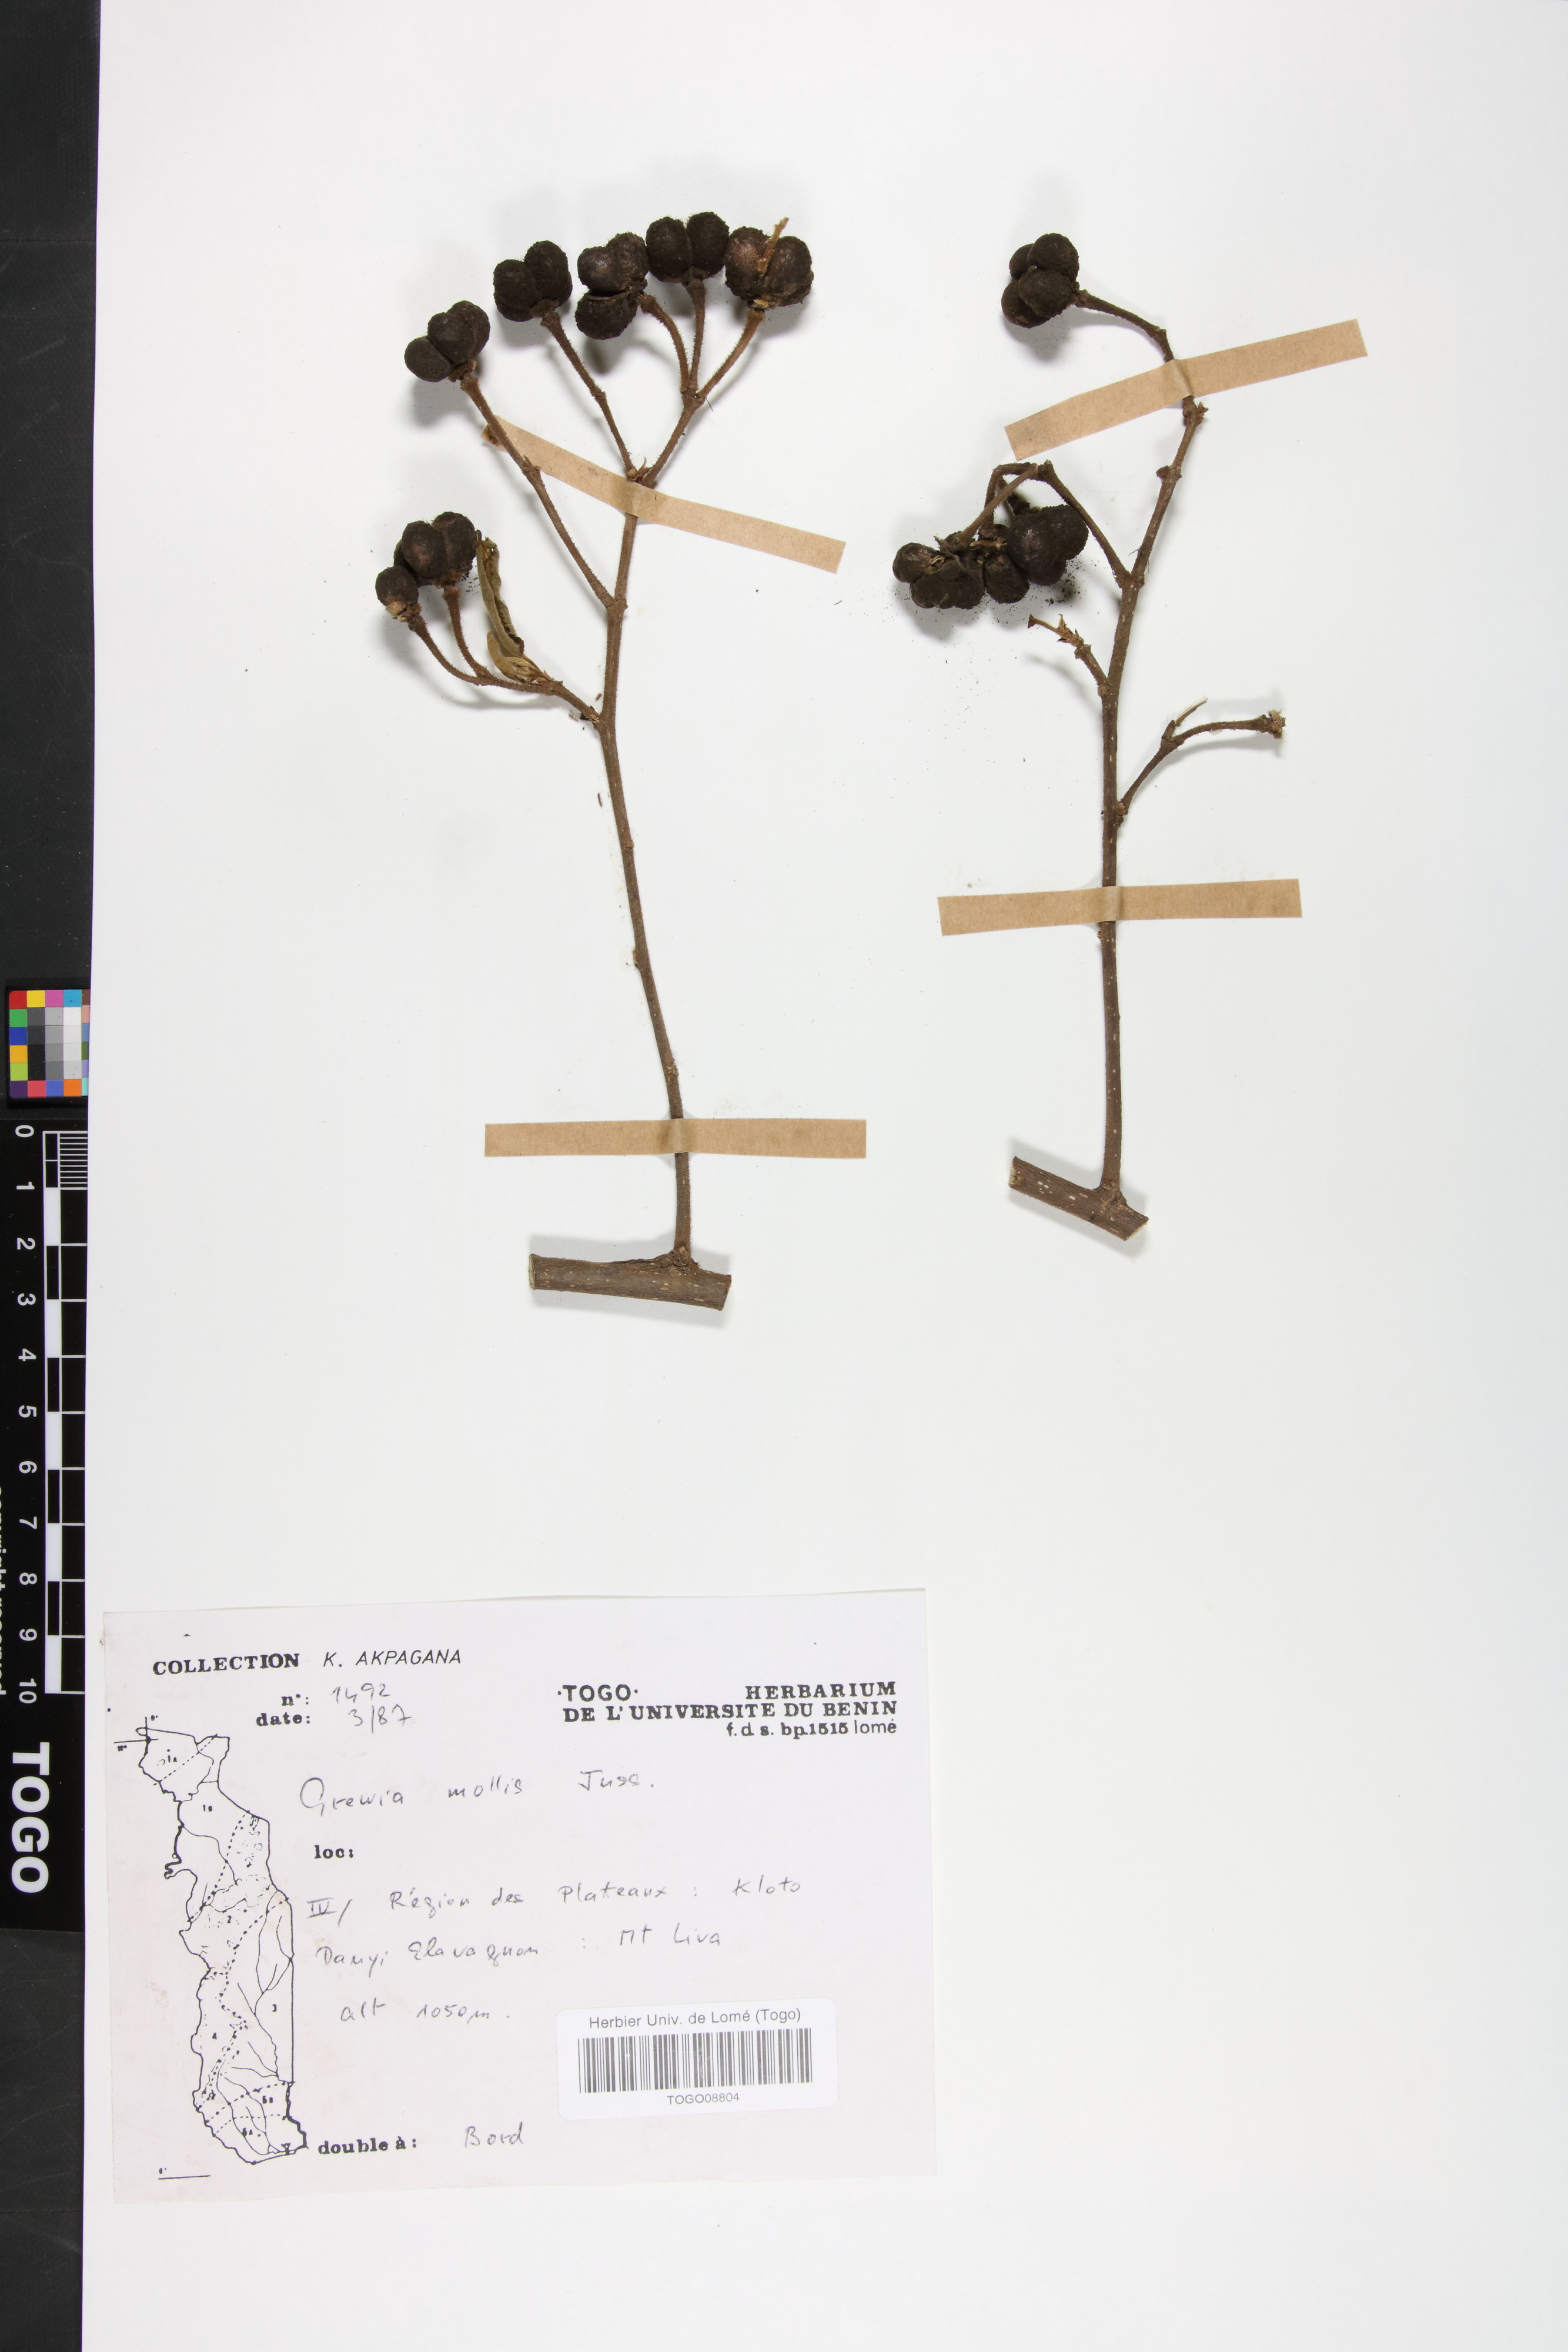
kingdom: Plantae
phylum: Tracheophyta
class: Magnoliopsida
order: Malvales
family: Malvaceae
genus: Grewia
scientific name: Grewia mollis
